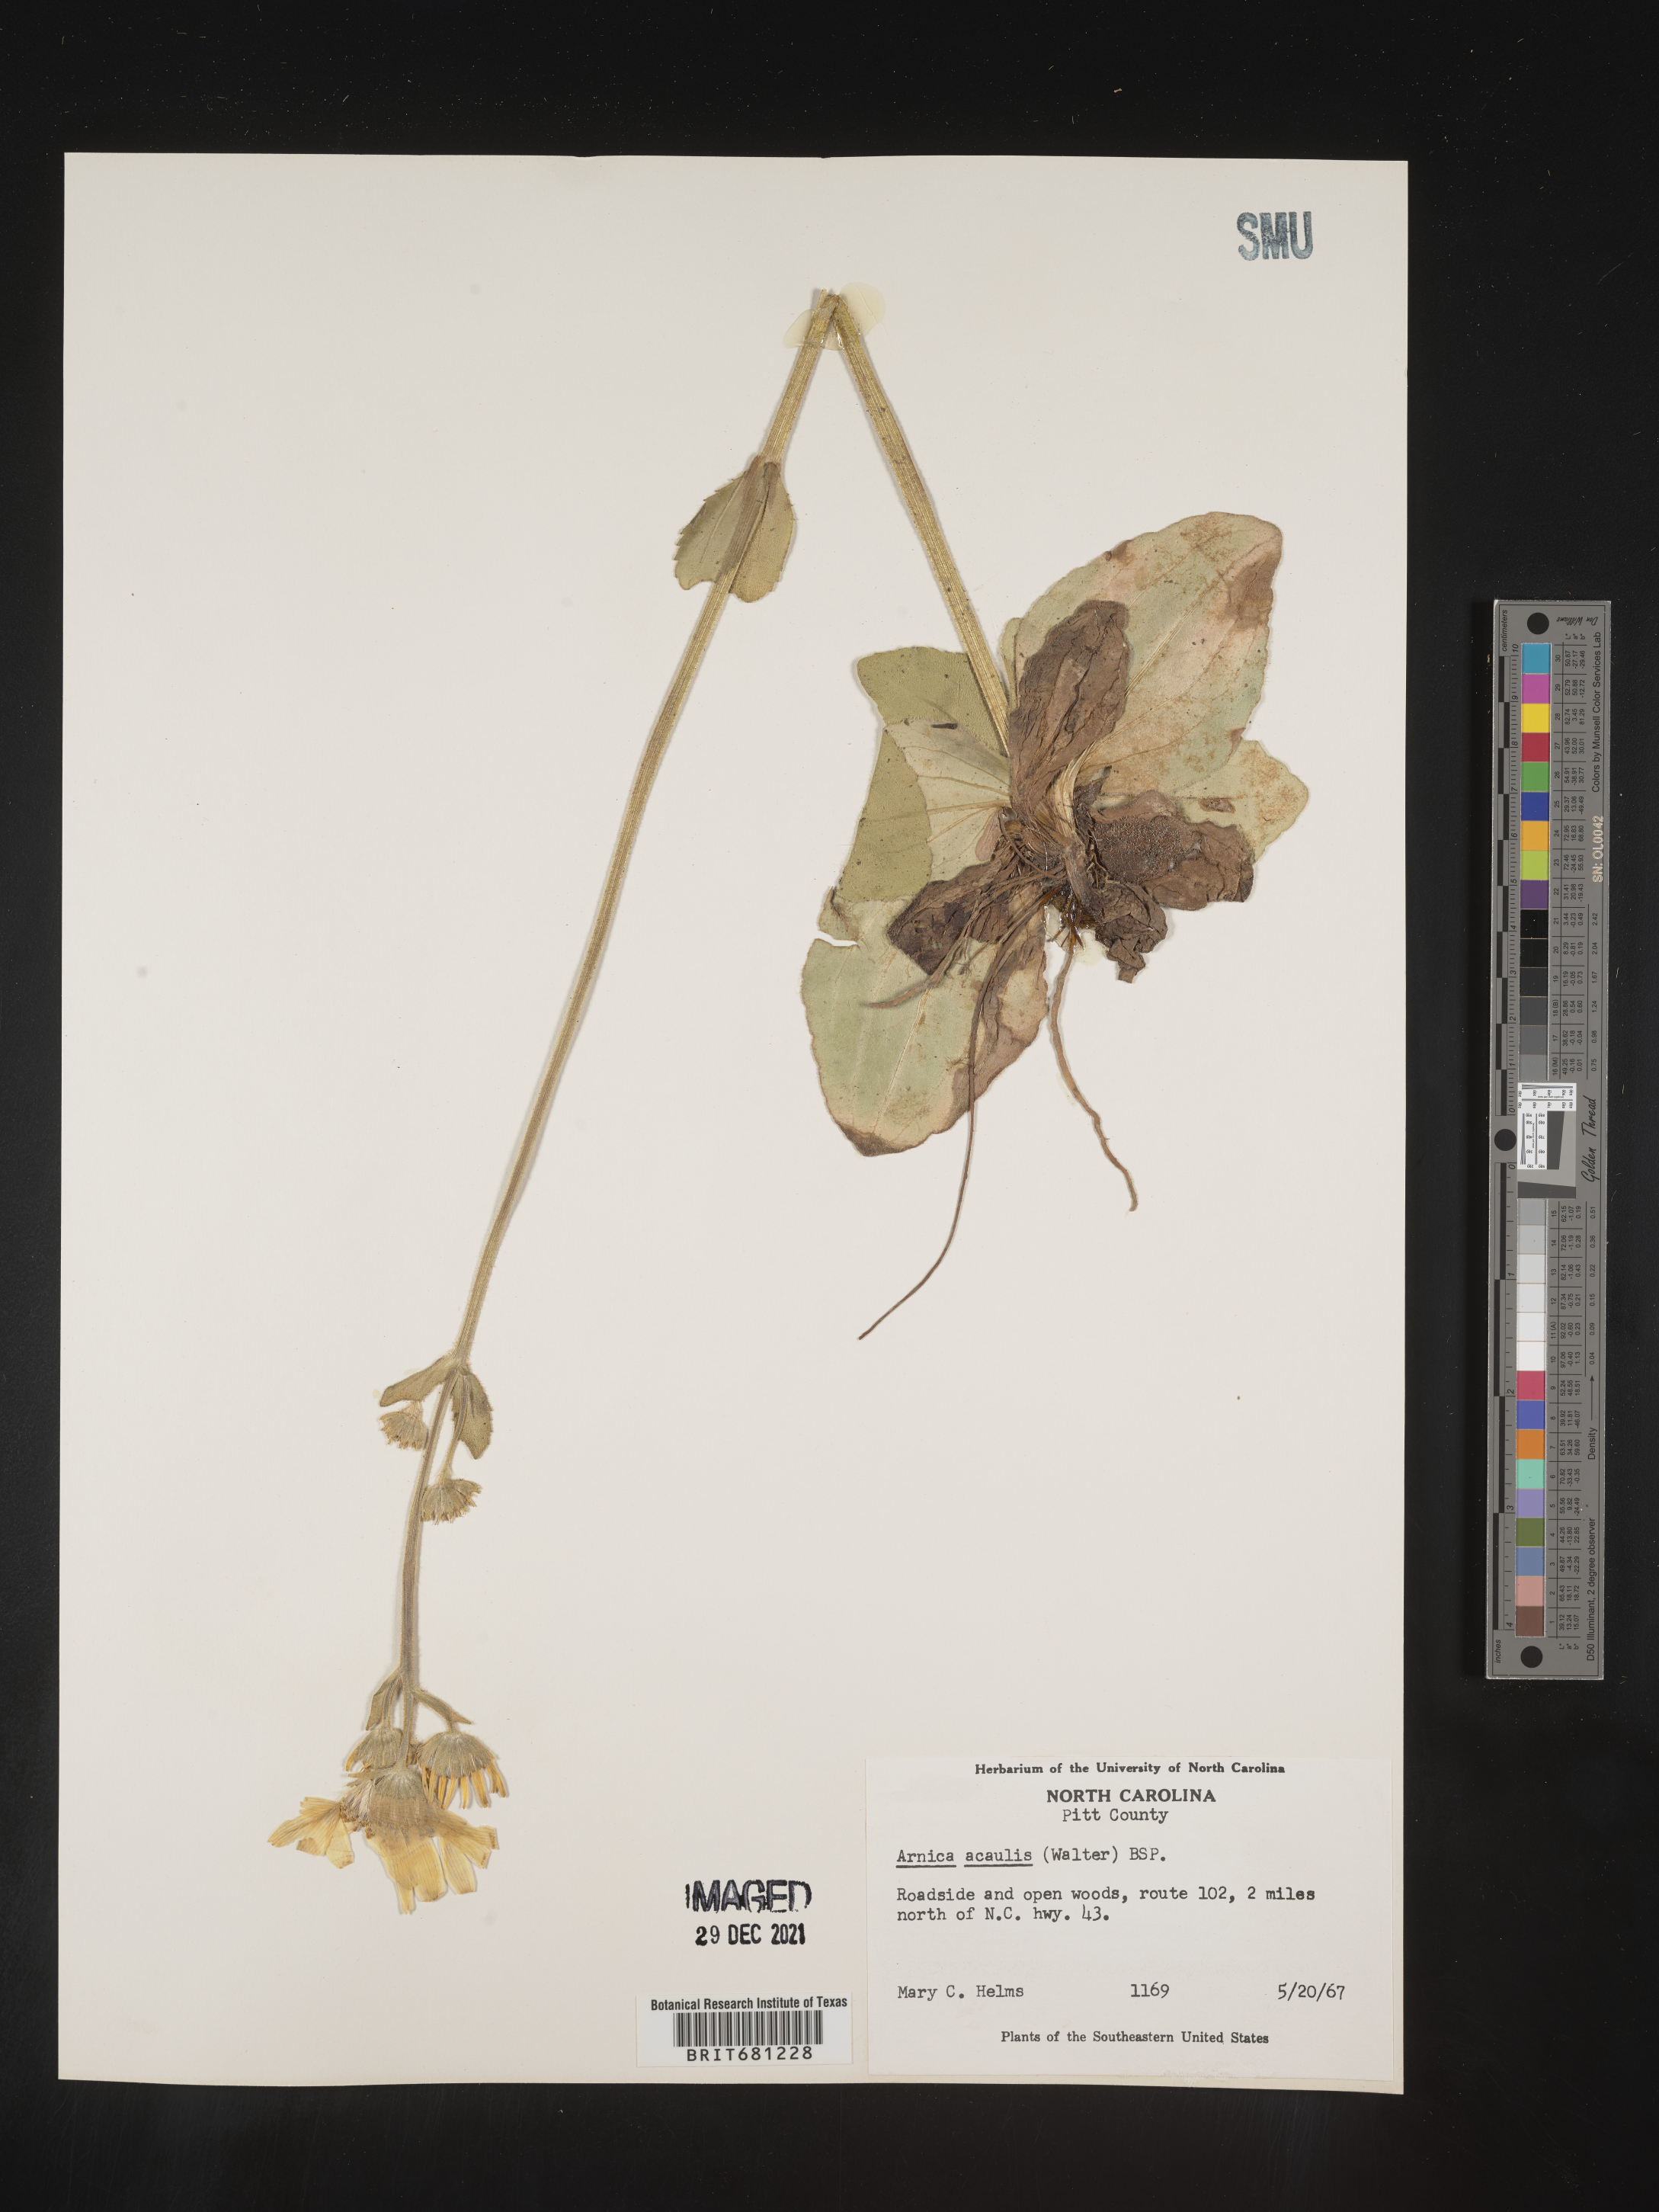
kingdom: Plantae
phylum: Tracheophyta
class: Magnoliopsida
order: Asterales
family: Asteraceae
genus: Arnica
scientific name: Arnica acaulis
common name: Common leopardbane
